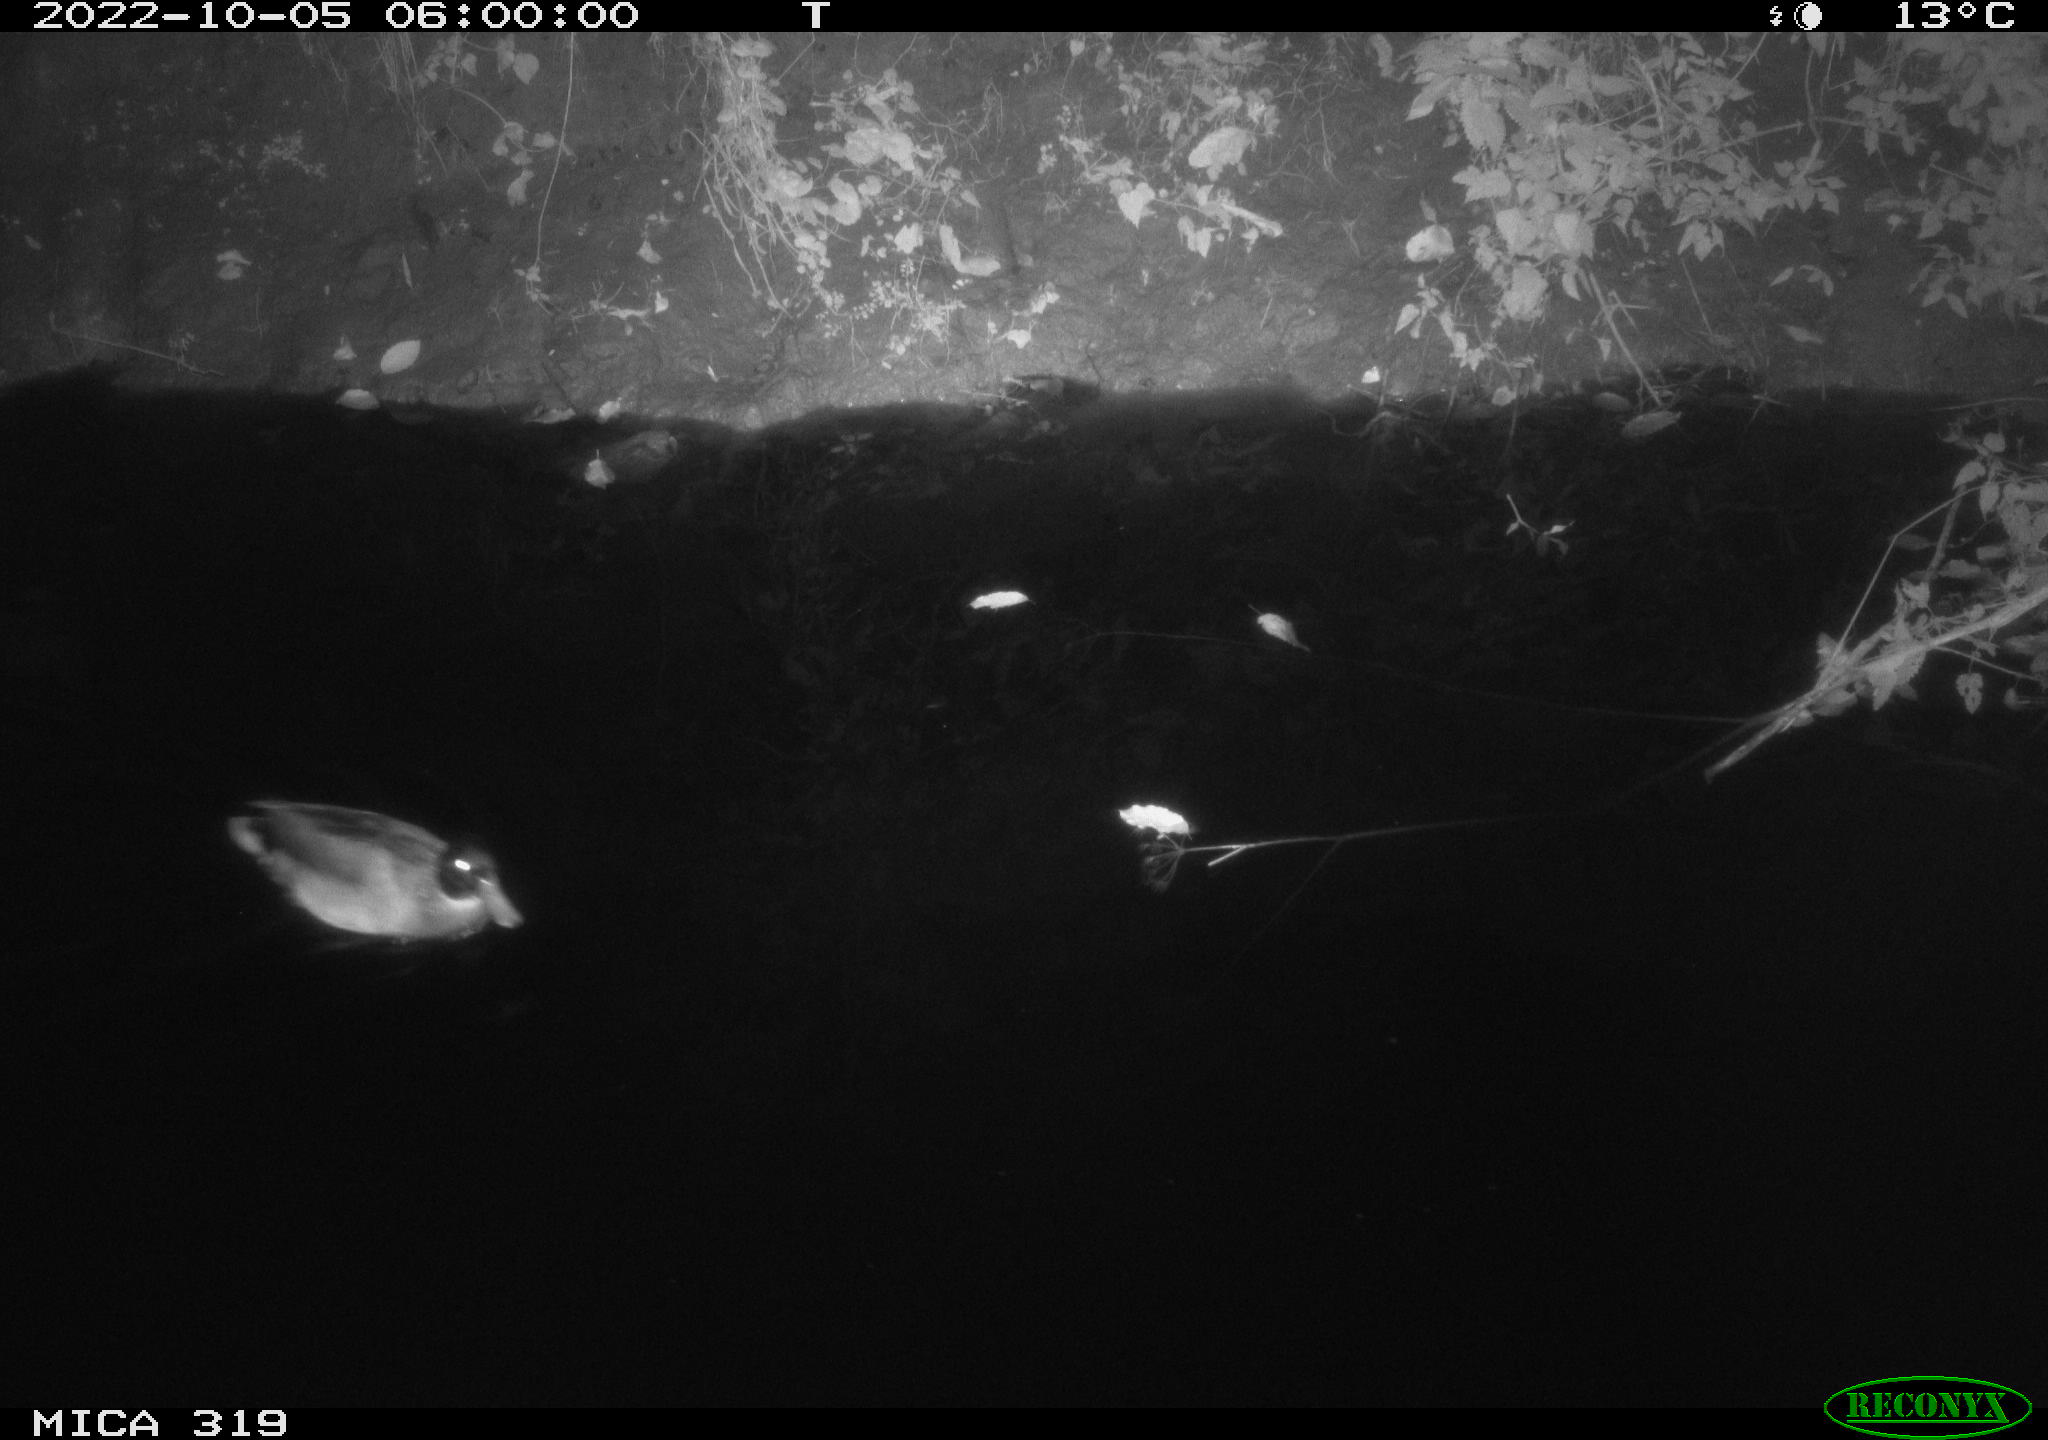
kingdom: Animalia
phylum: Chordata
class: Aves
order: Anseriformes
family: Anatidae
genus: Anas
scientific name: Anas
